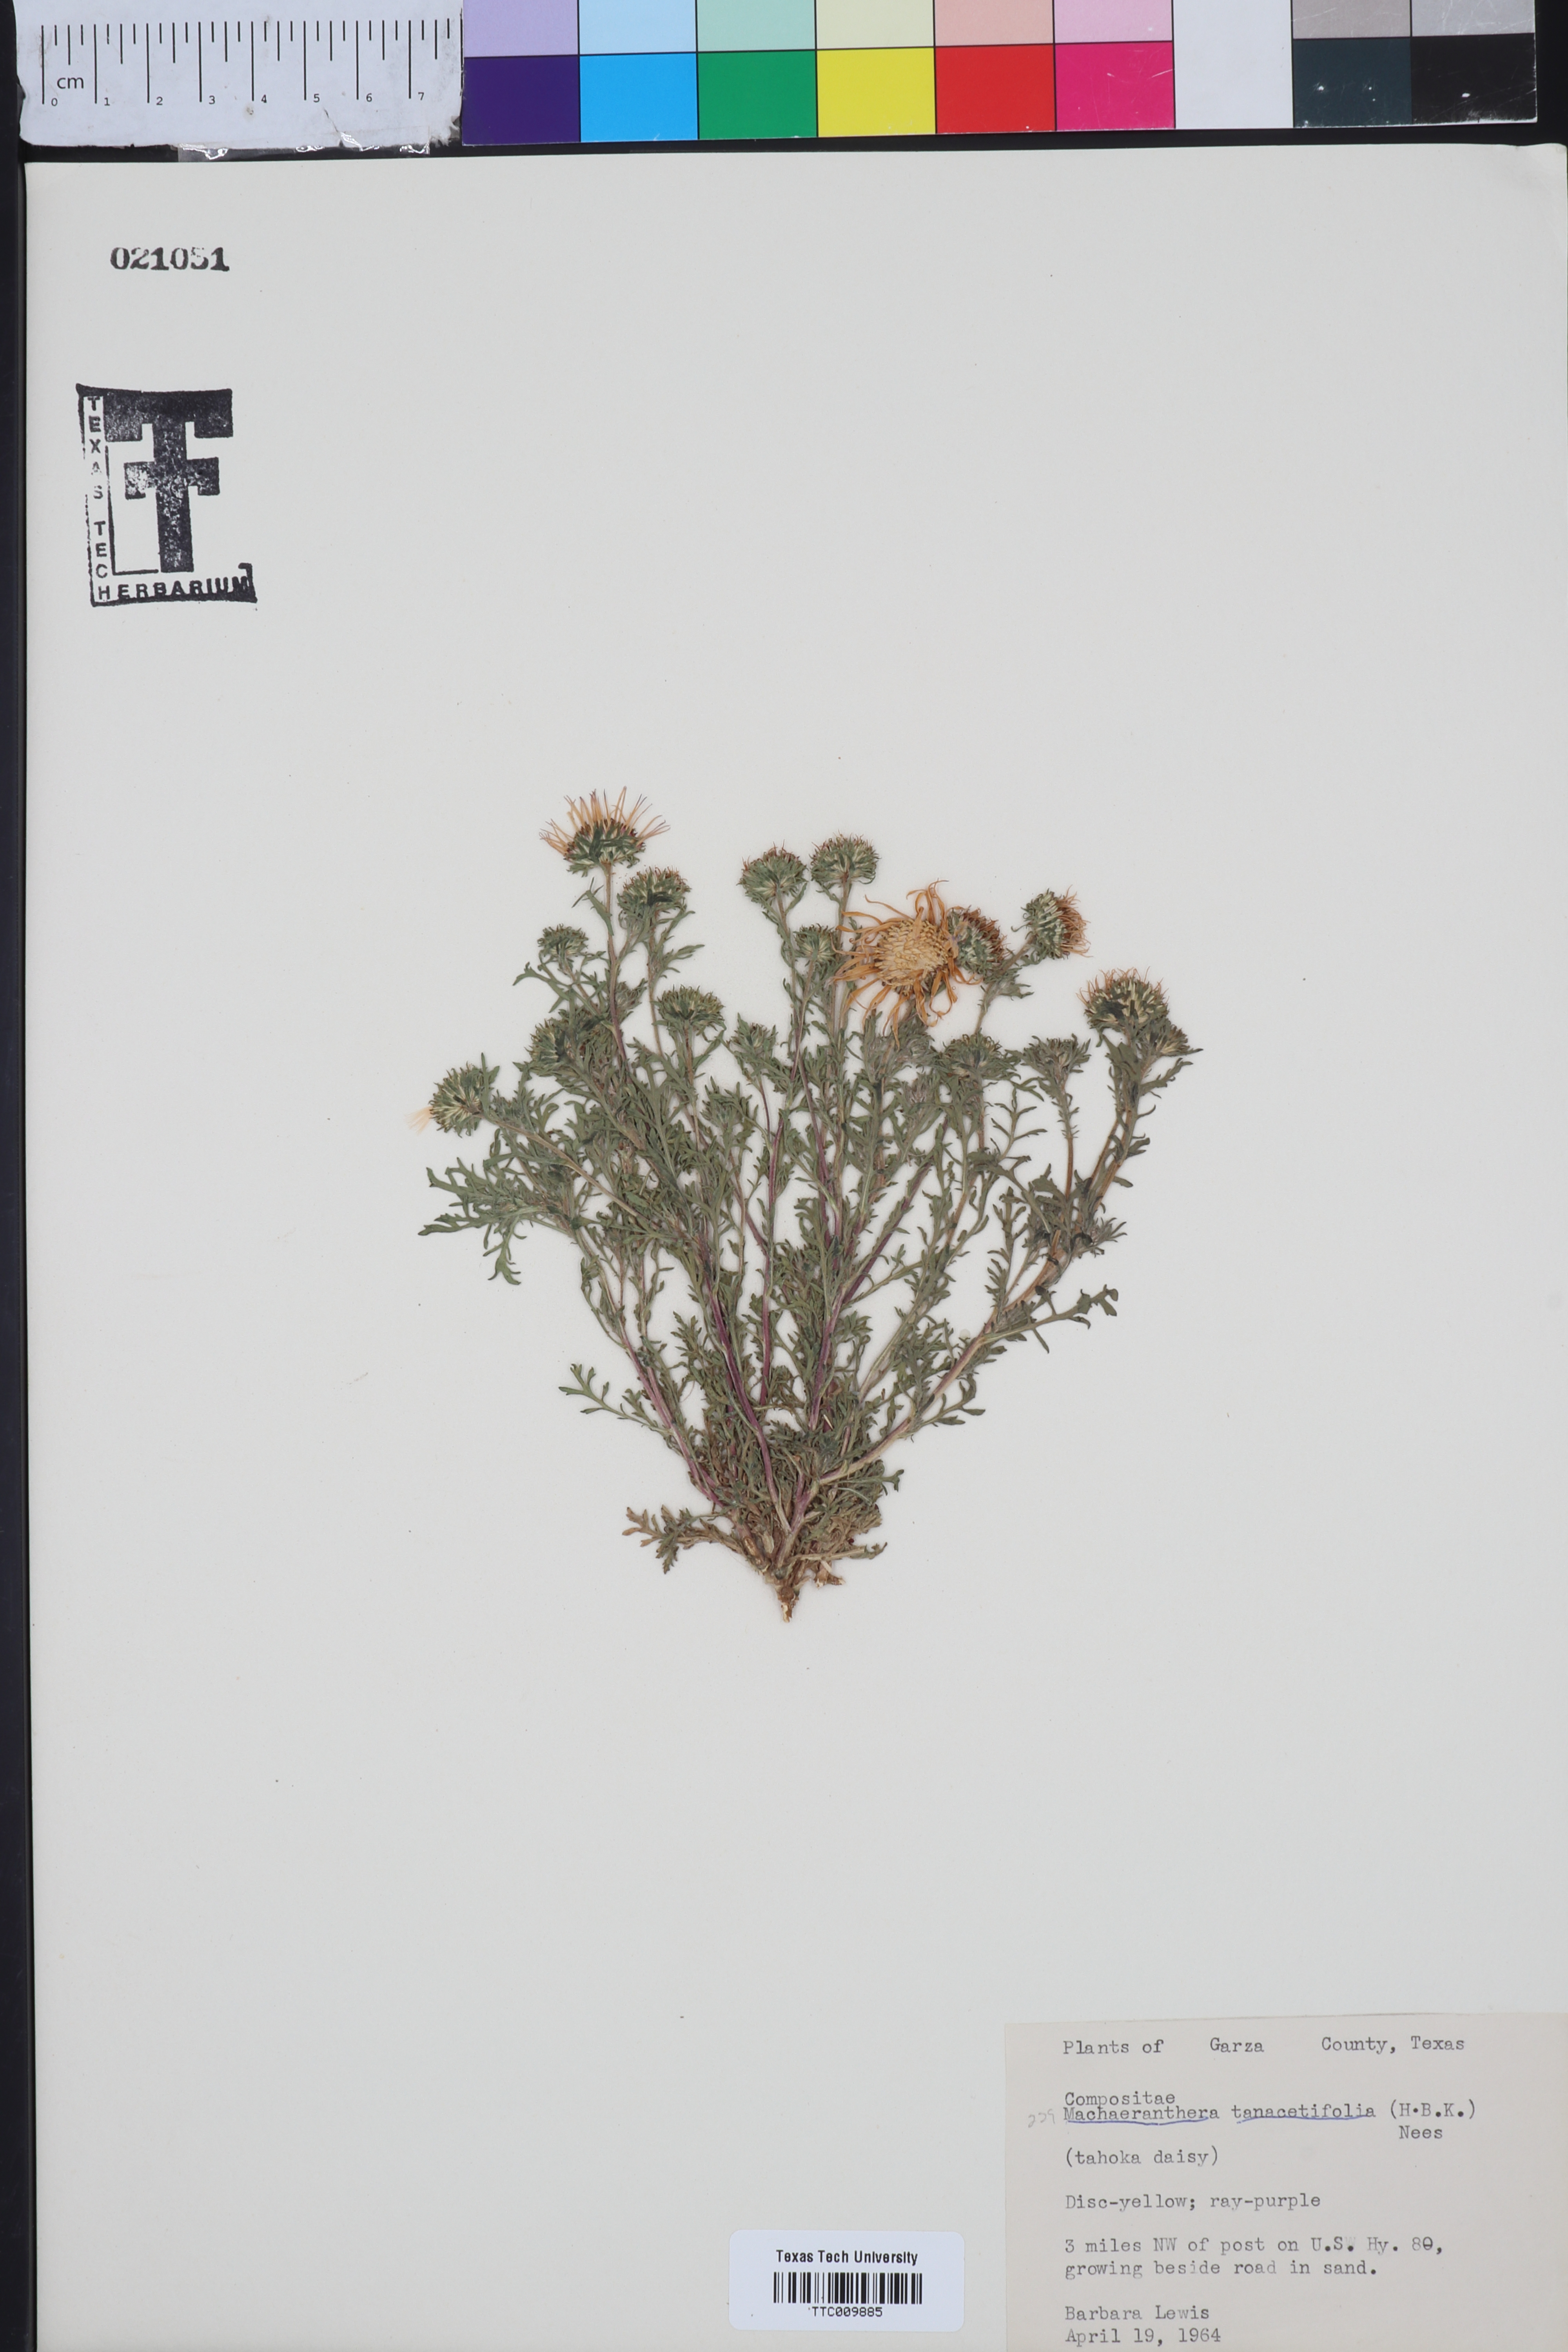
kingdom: Plantae
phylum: Tracheophyta
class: Magnoliopsida
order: Asterales
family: Asteraceae
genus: Machaeranthera
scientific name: Machaeranthera tanacetifolia
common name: Tansy-aster
